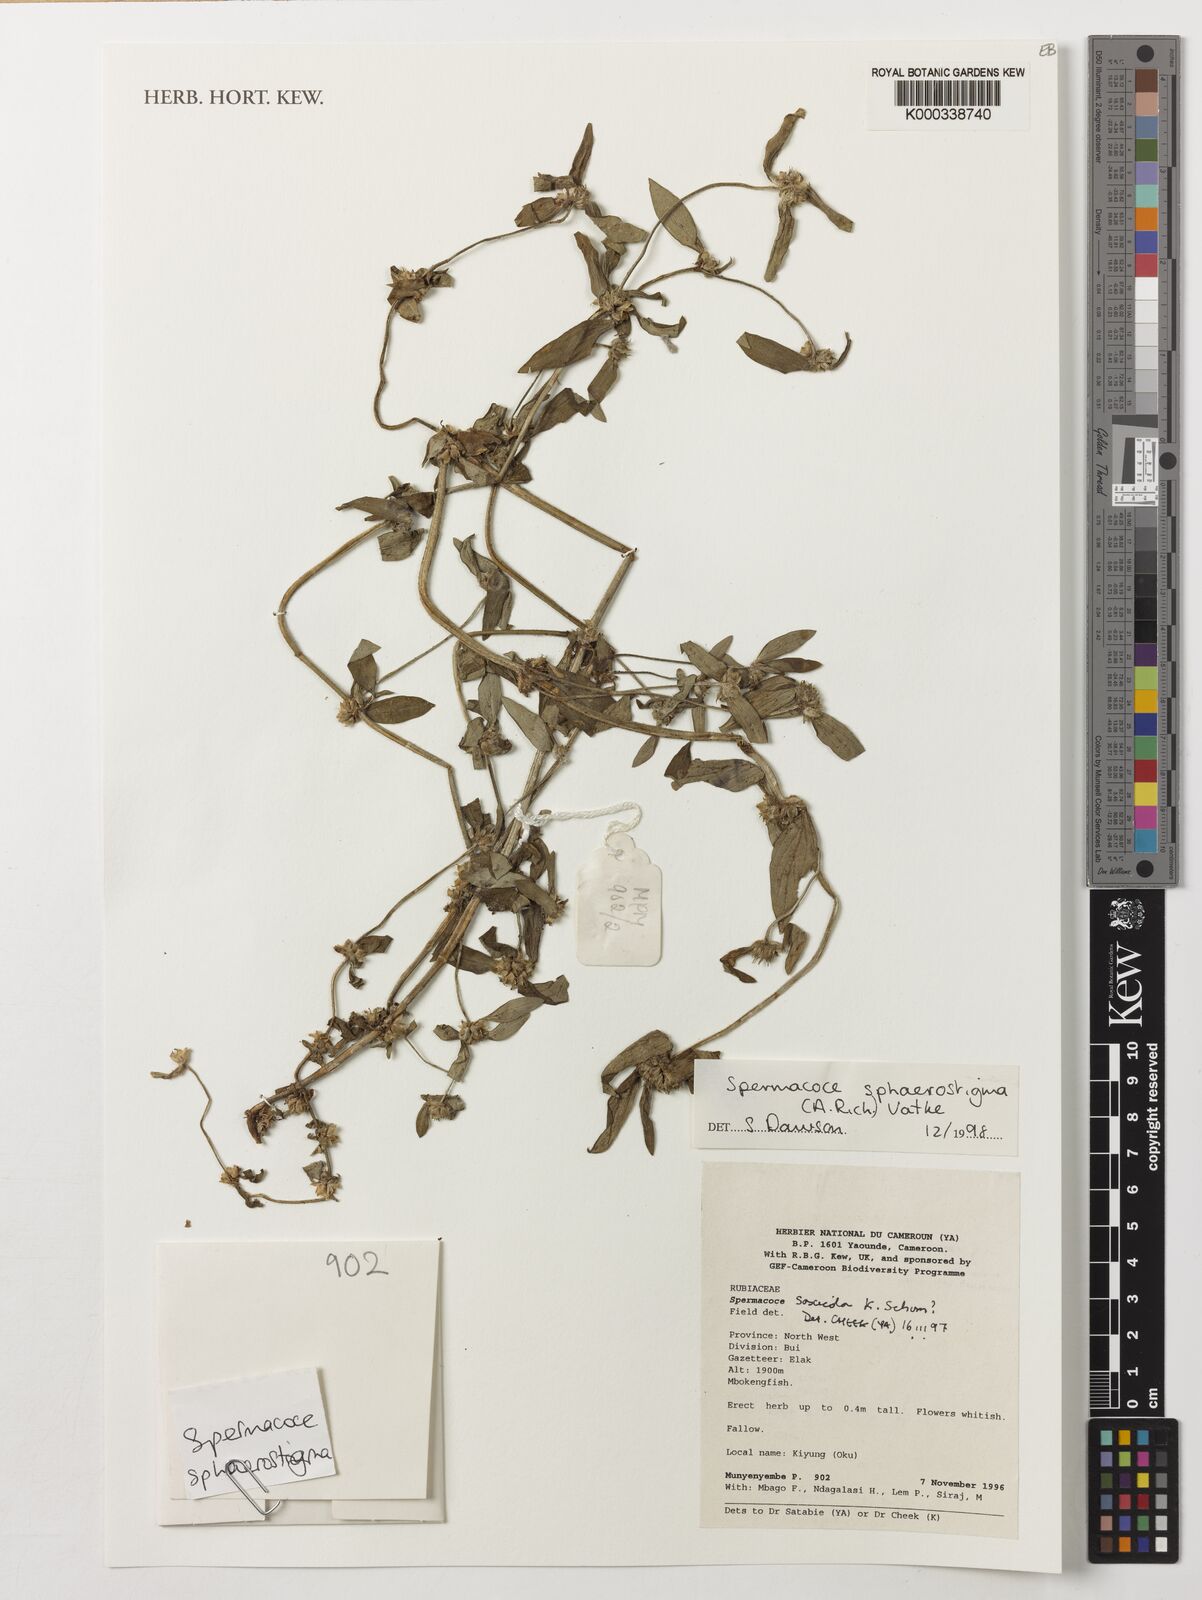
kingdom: Plantae
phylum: Tracheophyta
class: Magnoliopsida
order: Gentianales
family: Rubiaceae
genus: Spermacoce
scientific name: Spermacoce
